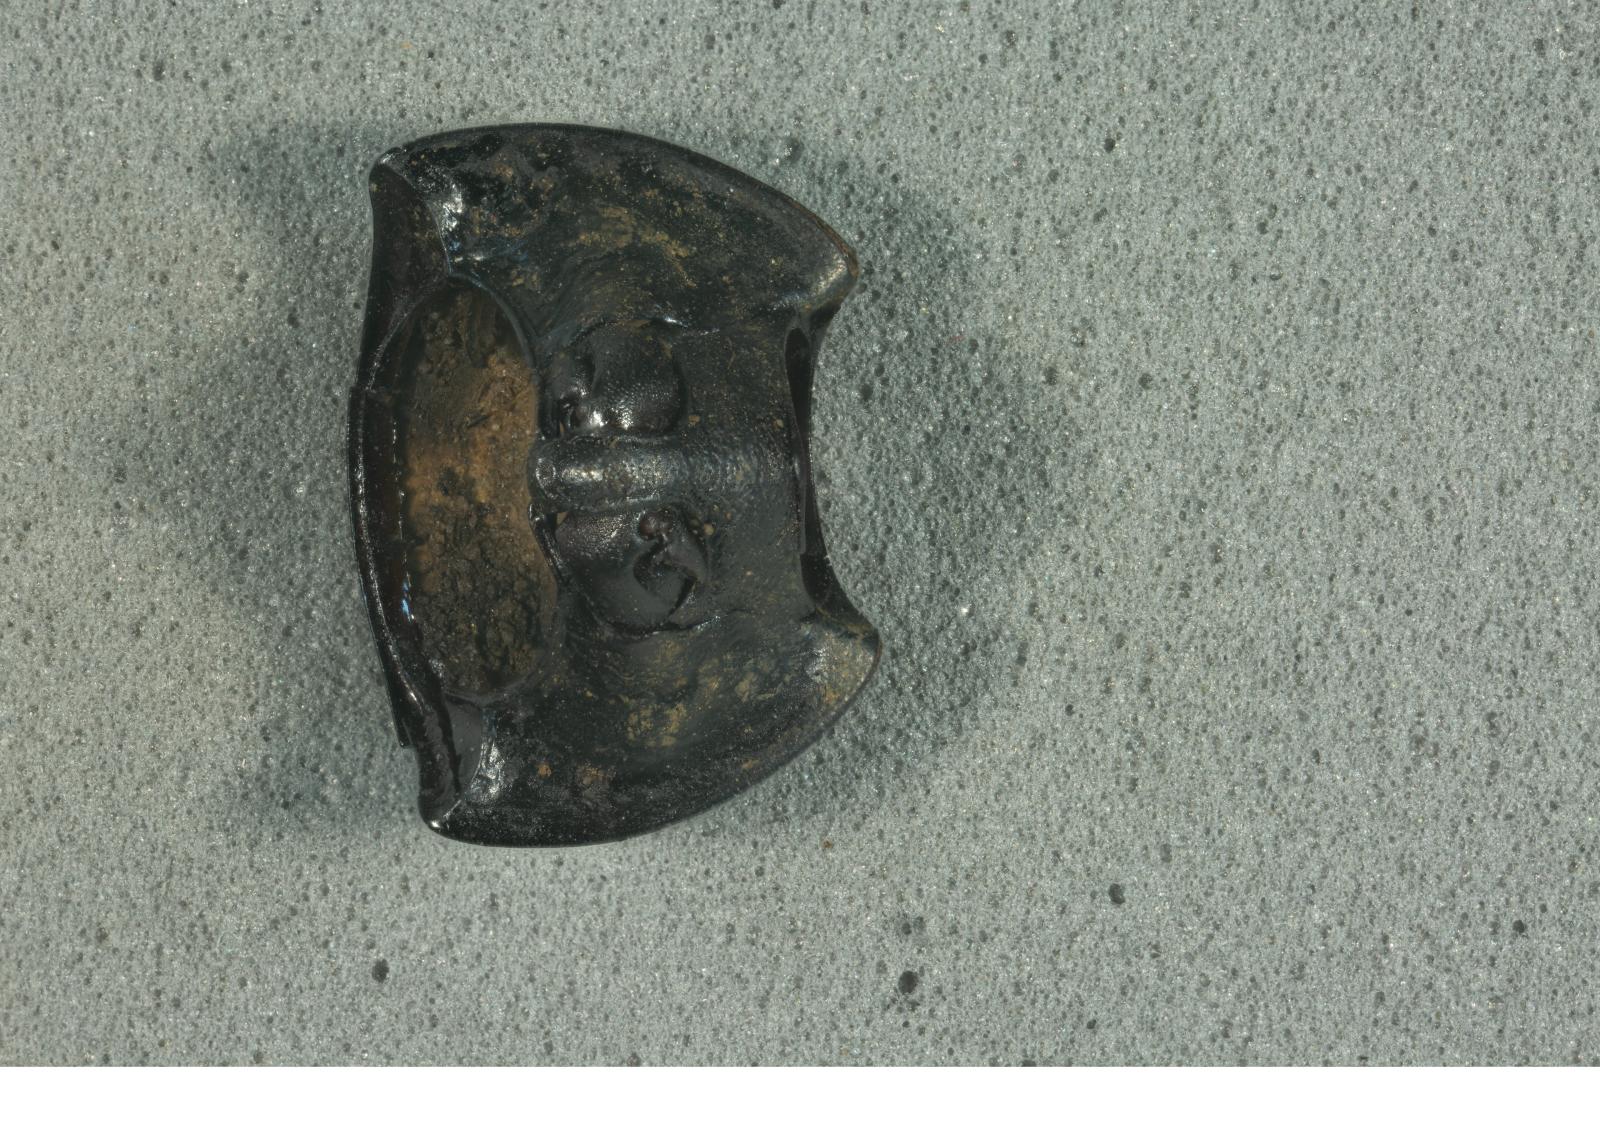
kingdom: Animalia
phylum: Arthropoda
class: Insecta
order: Coleoptera
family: Tenebrionidae
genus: Coniontis
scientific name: Coniontis abdominalis
